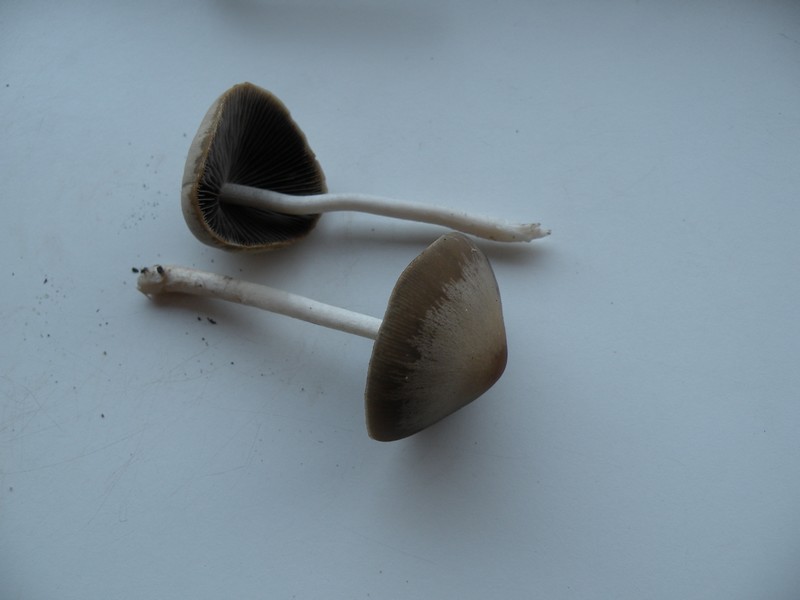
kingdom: Fungi
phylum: Basidiomycota
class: Agaricomycetes
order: Agaricales
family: Psathyrellaceae
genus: Parasola
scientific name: Parasola conopilea
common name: kegle-hjulhat
